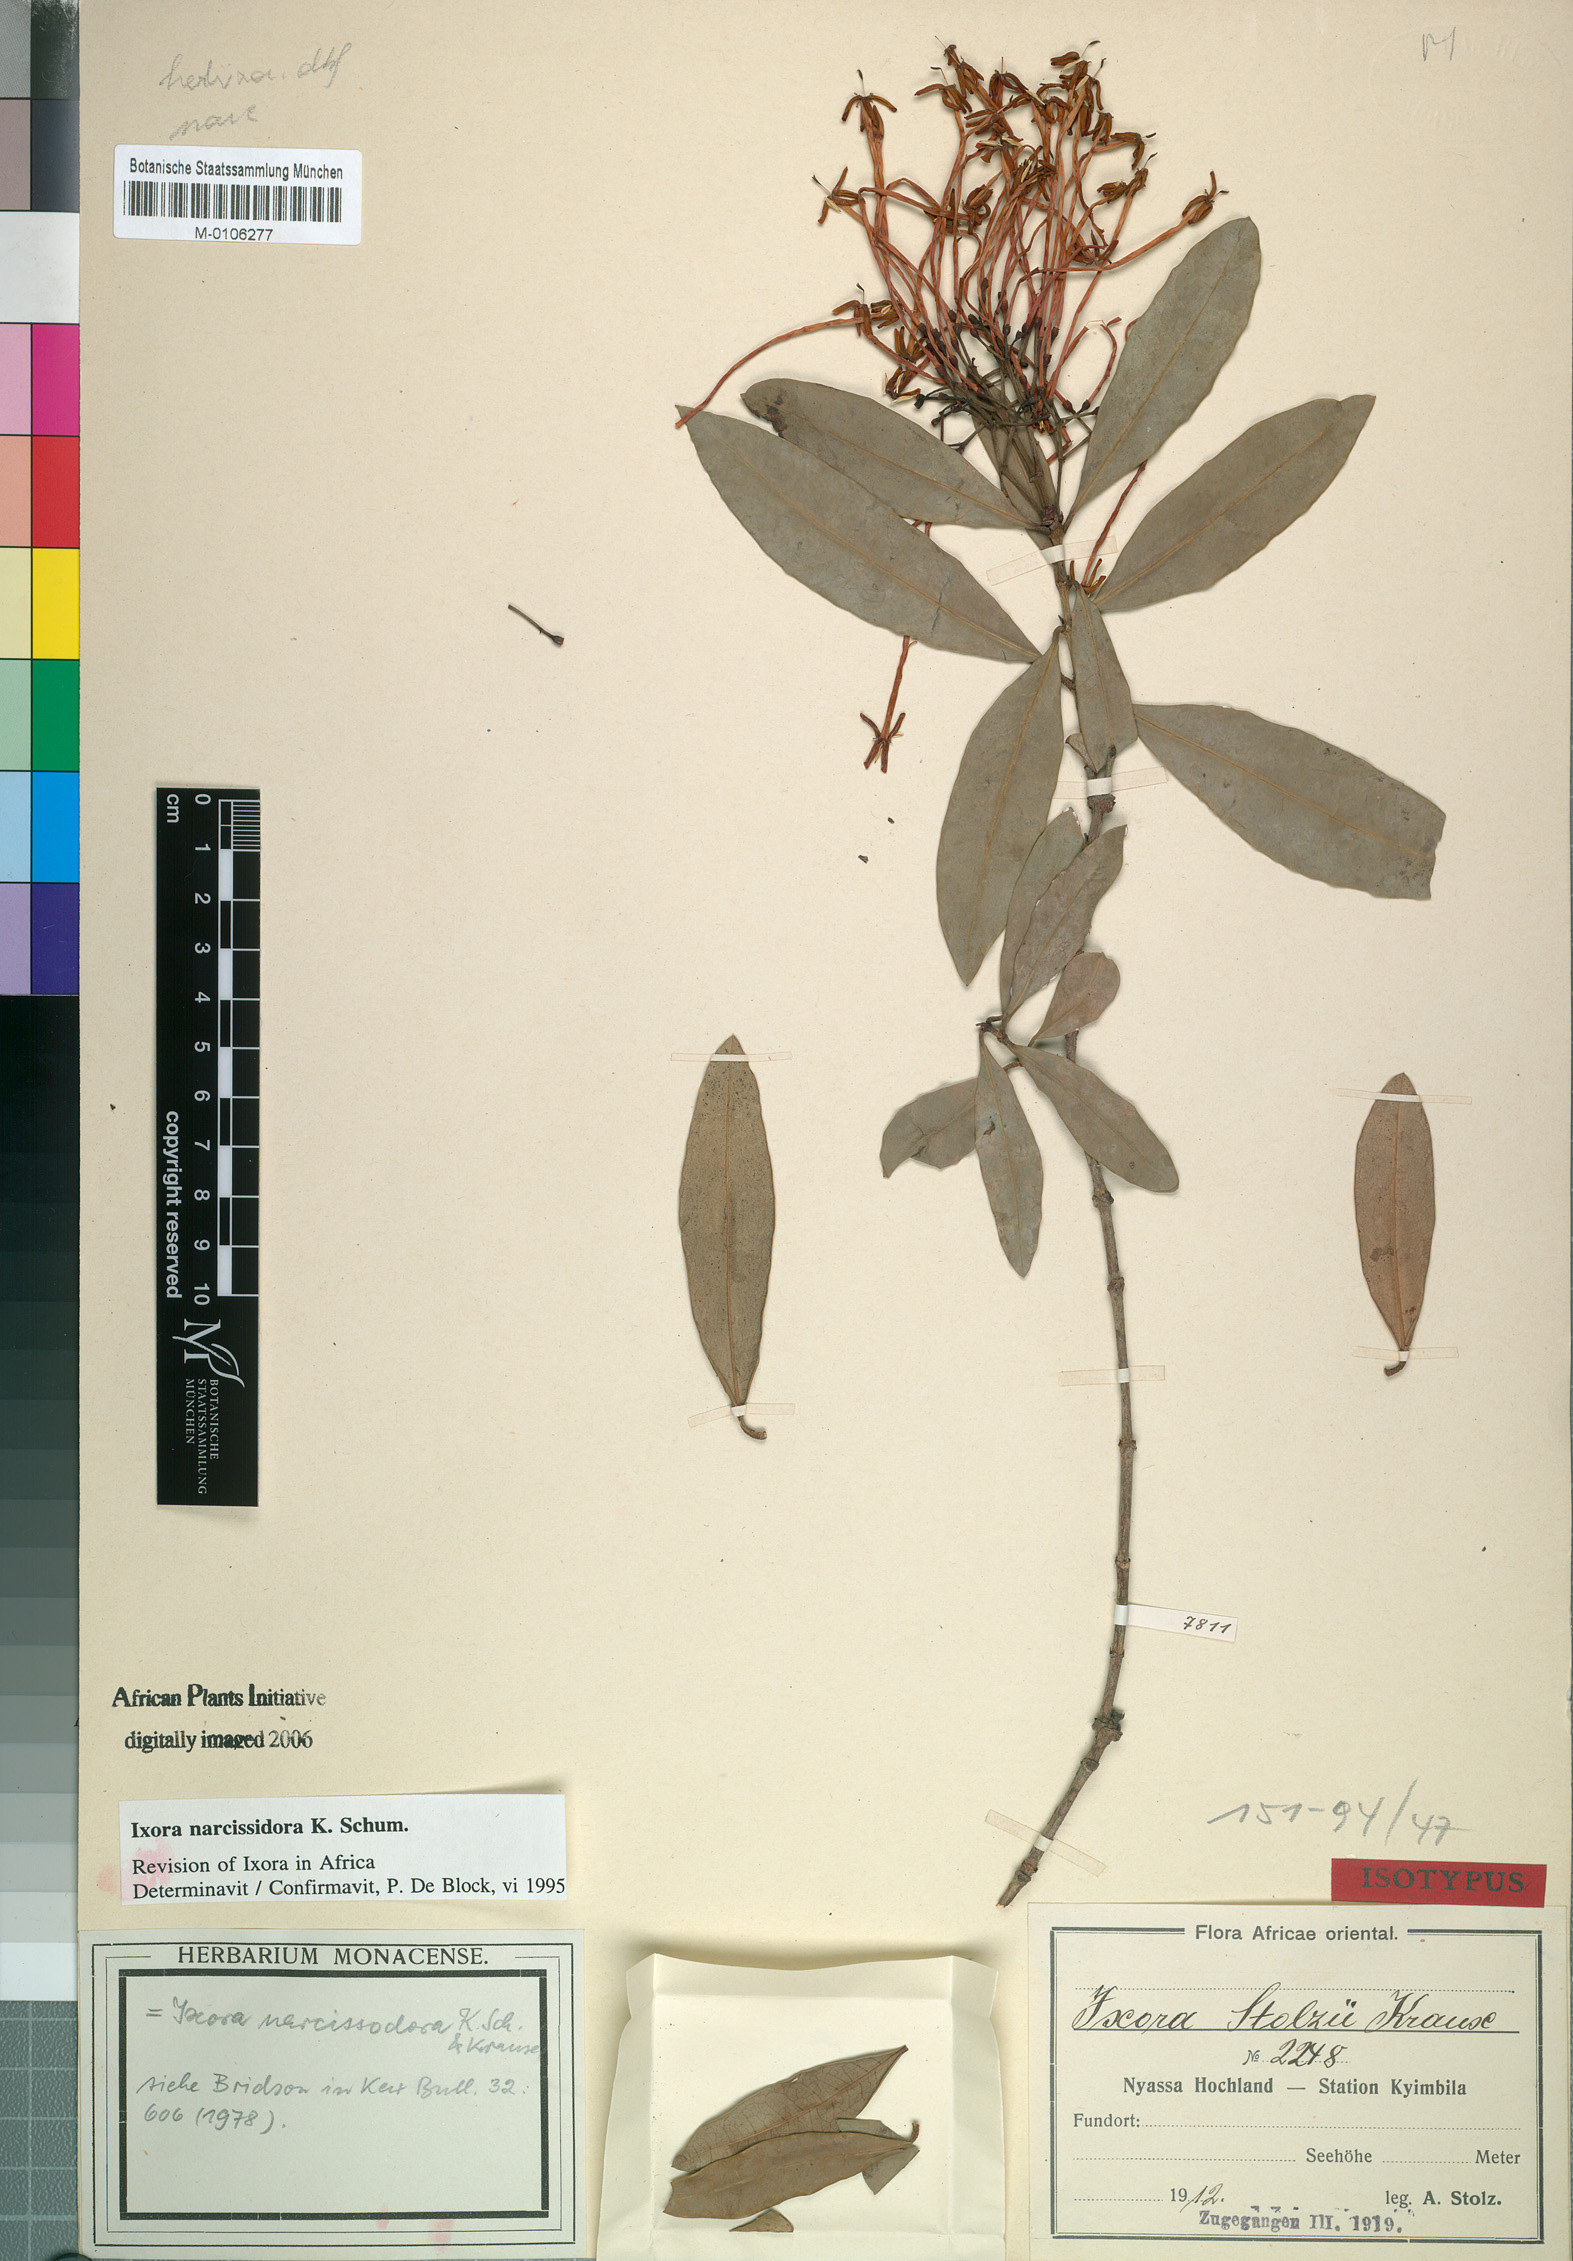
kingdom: Plantae
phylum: Tracheophyta
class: Magnoliopsida
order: Gentianales
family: Rubiaceae
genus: Ixora
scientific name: Ixora narcissodora
